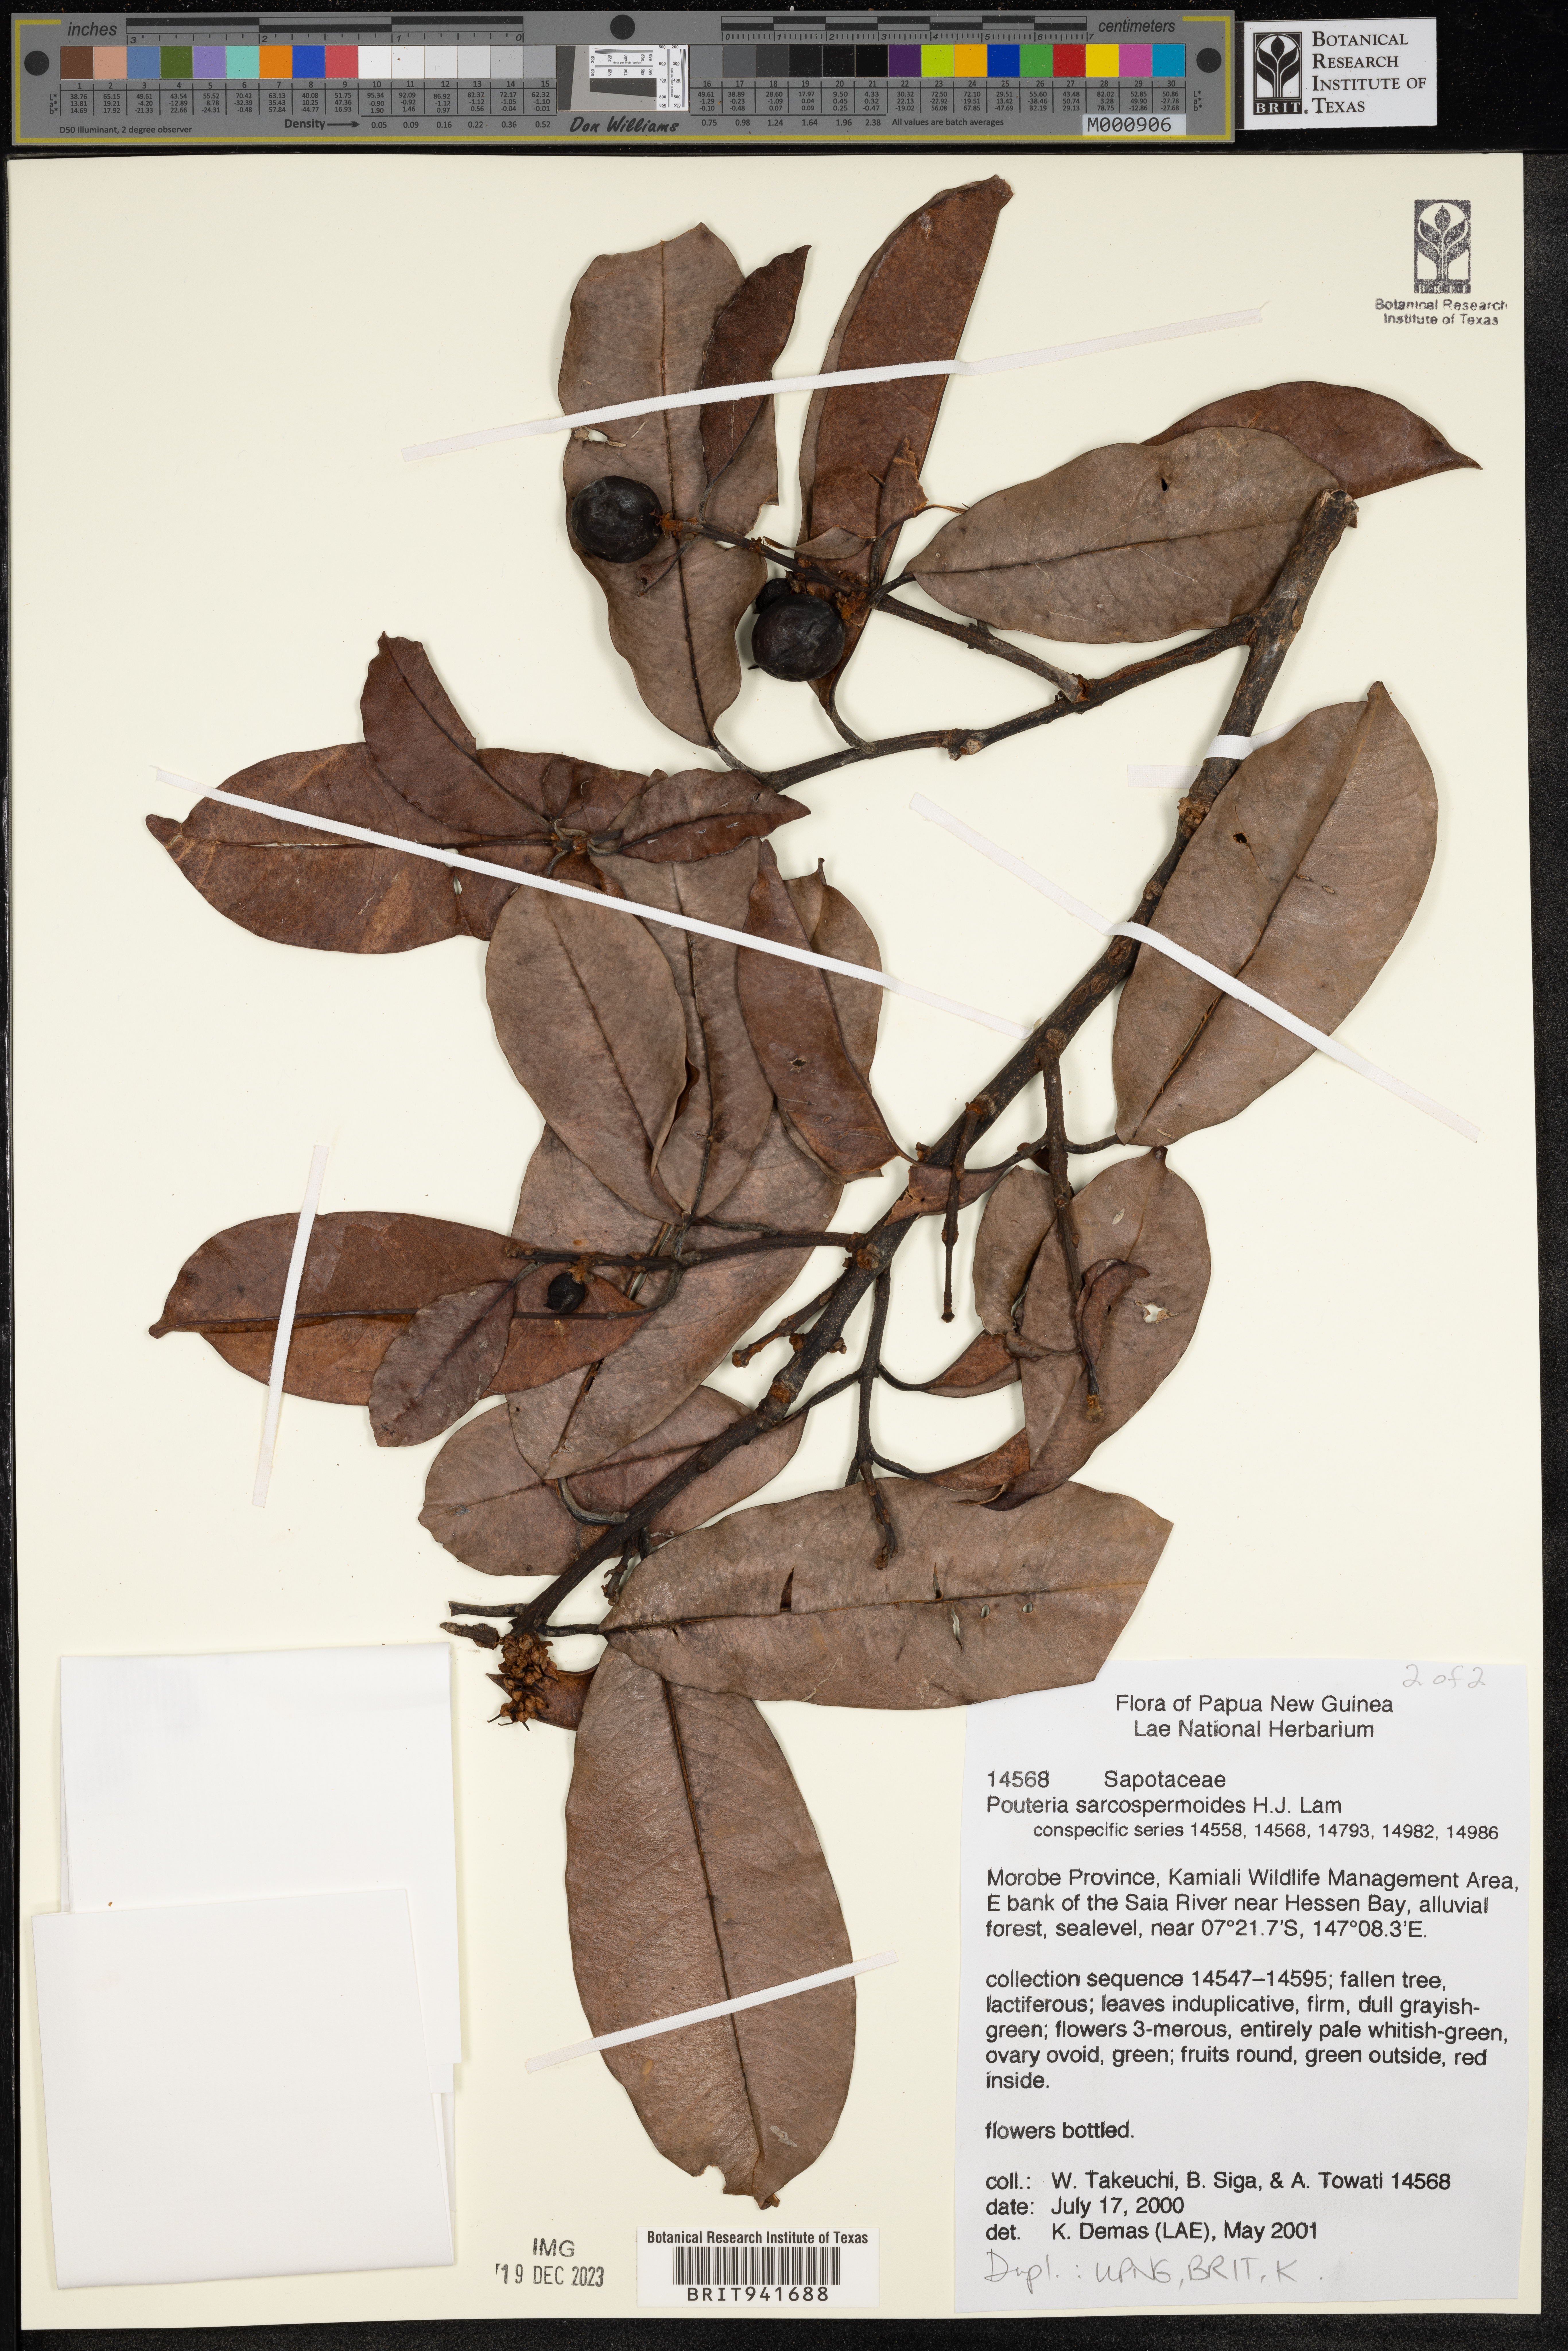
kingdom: Plantae
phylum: Tracheophyta
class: Magnoliopsida
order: Ericales
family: Sapotaceae
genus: Pouteria
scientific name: Pouteria
